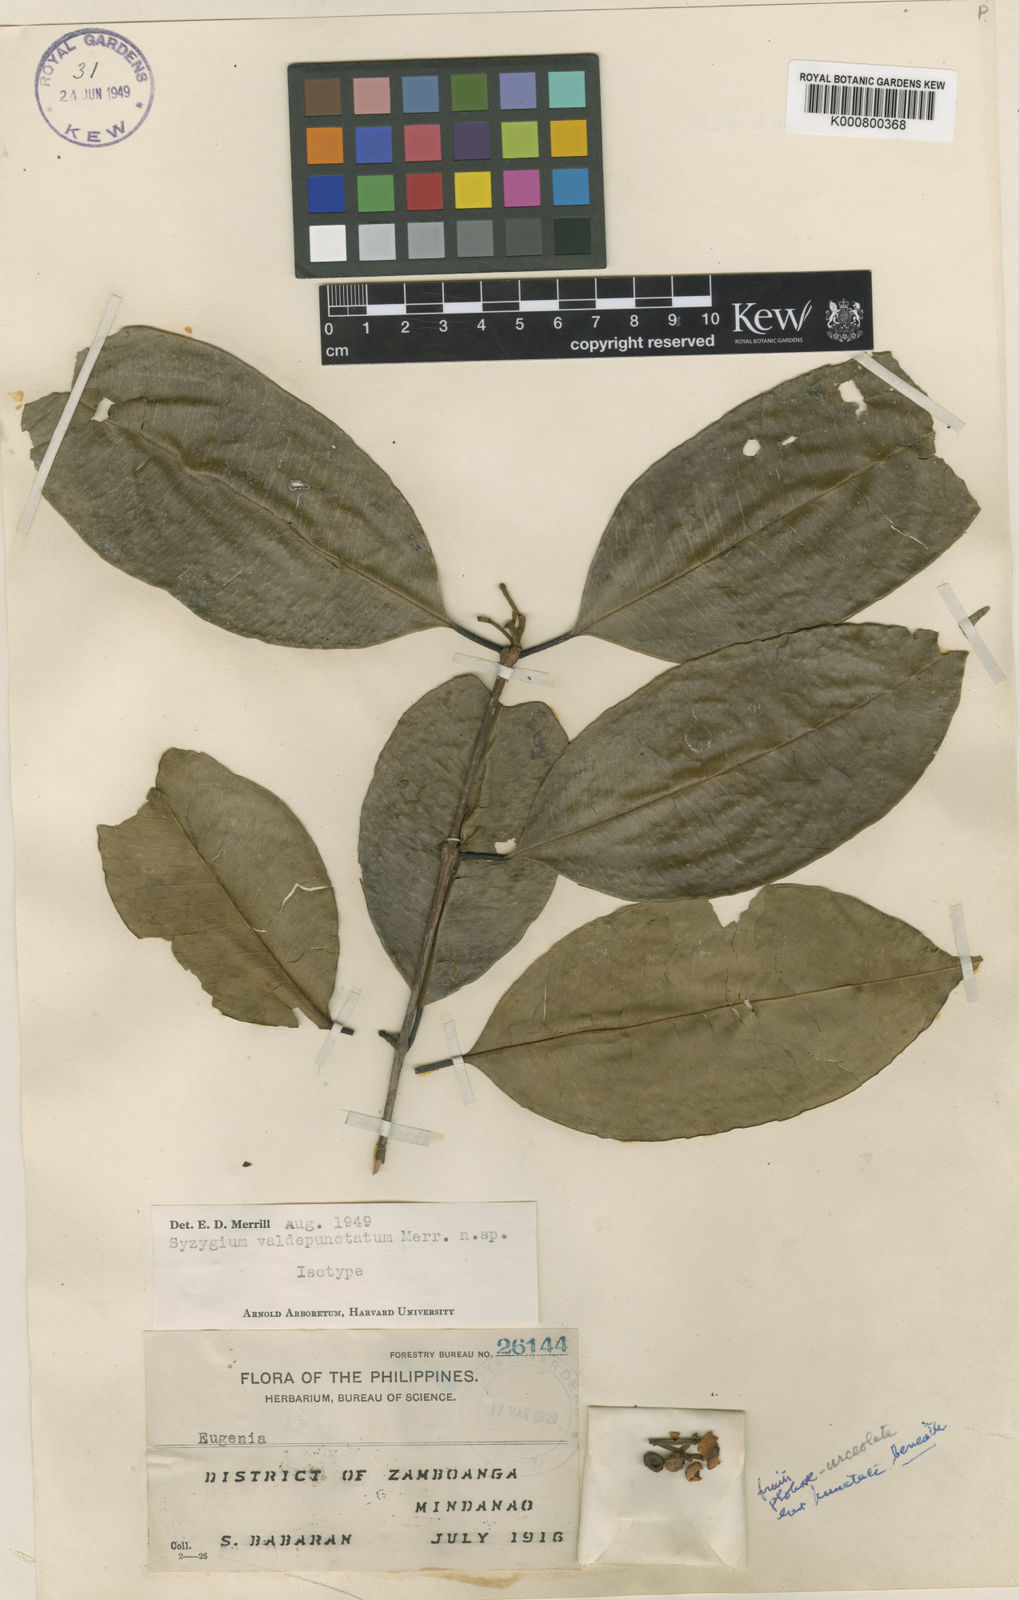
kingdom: Plantae
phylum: Tracheophyta
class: Magnoliopsida
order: Myrtales
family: Myrtaceae
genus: Syzygium
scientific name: Syzygium valdepunctatum
